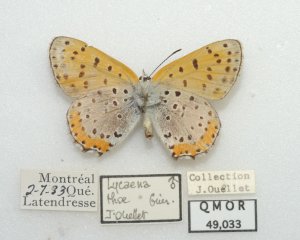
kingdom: Animalia
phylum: Arthropoda
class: Insecta
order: Lepidoptera
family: Sesiidae
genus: Sesia
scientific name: Sesia Lycaena hyllus
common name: Bronze Copper
